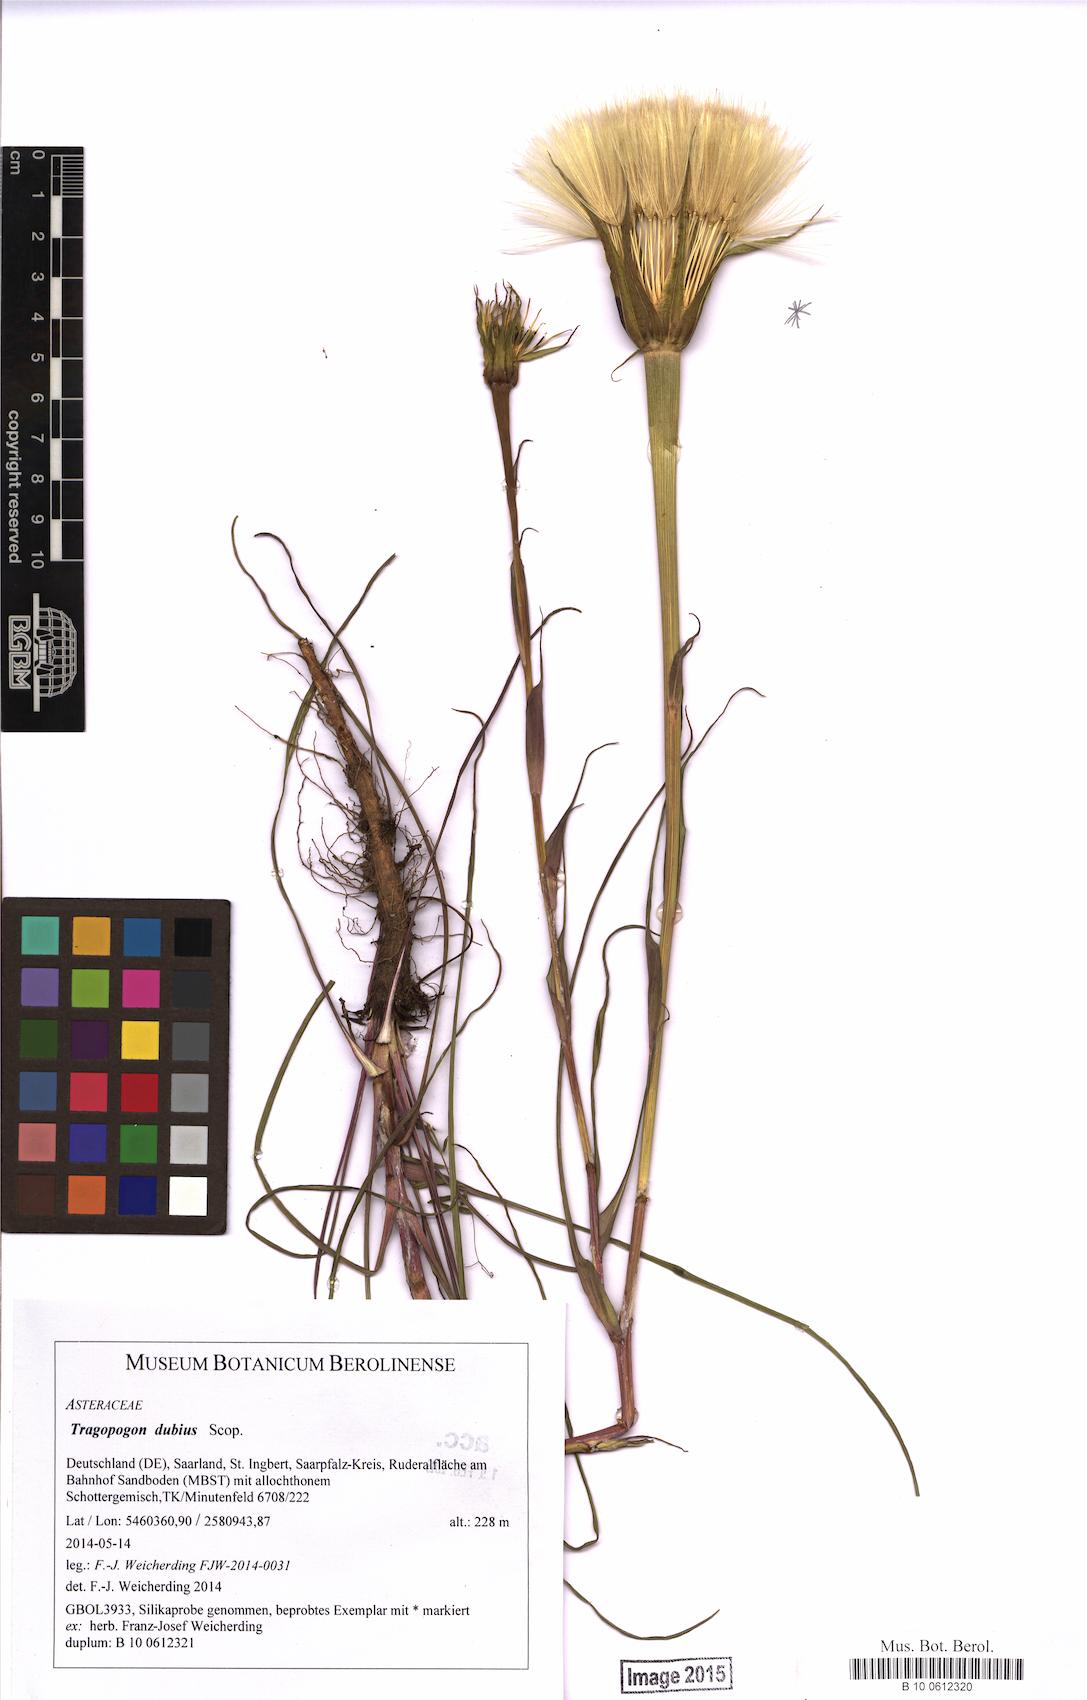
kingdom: Plantae
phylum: Tracheophyta
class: Magnoliopsida
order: Asterales
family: Asteraceae
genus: Tragopogon
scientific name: Tragopogon dubius
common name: Yellow salsify
